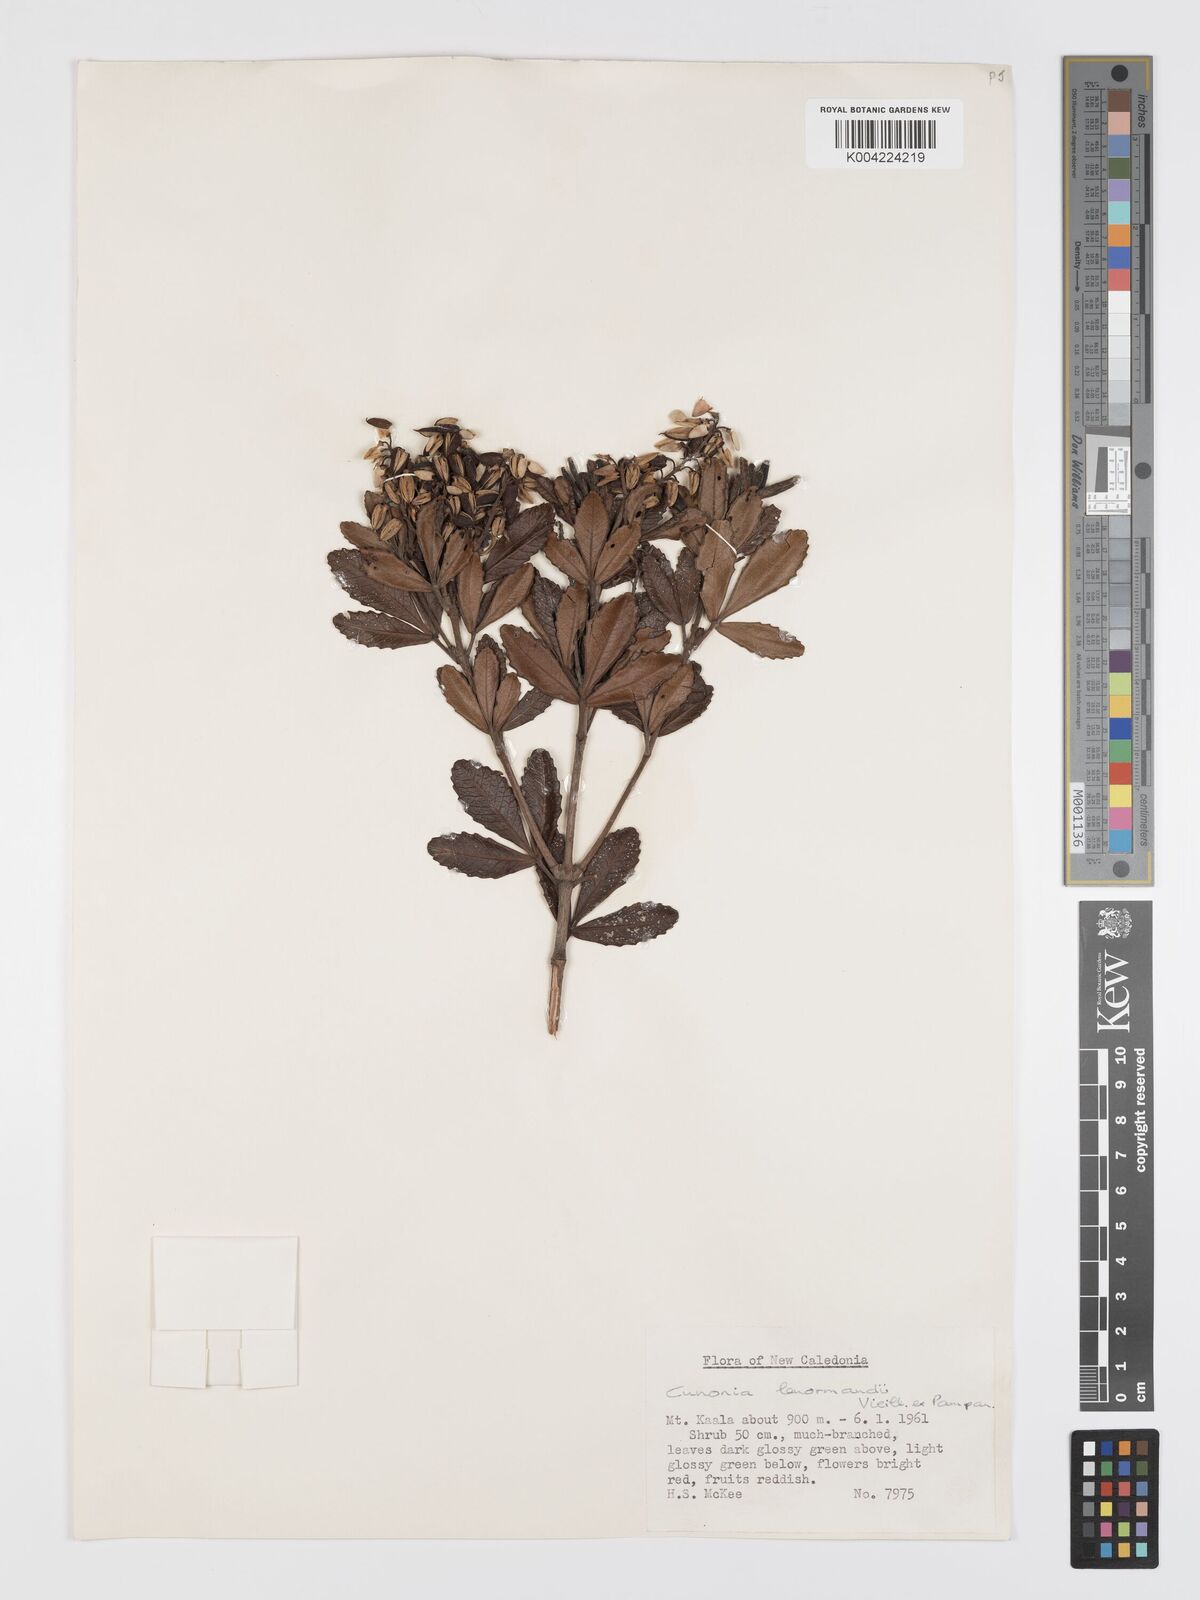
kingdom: Plantae
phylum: Tracheophyta
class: Magnoliopsida
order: Oxalidales
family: Cunoniaceae
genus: Cunonia
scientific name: Cunonia lenormandii
